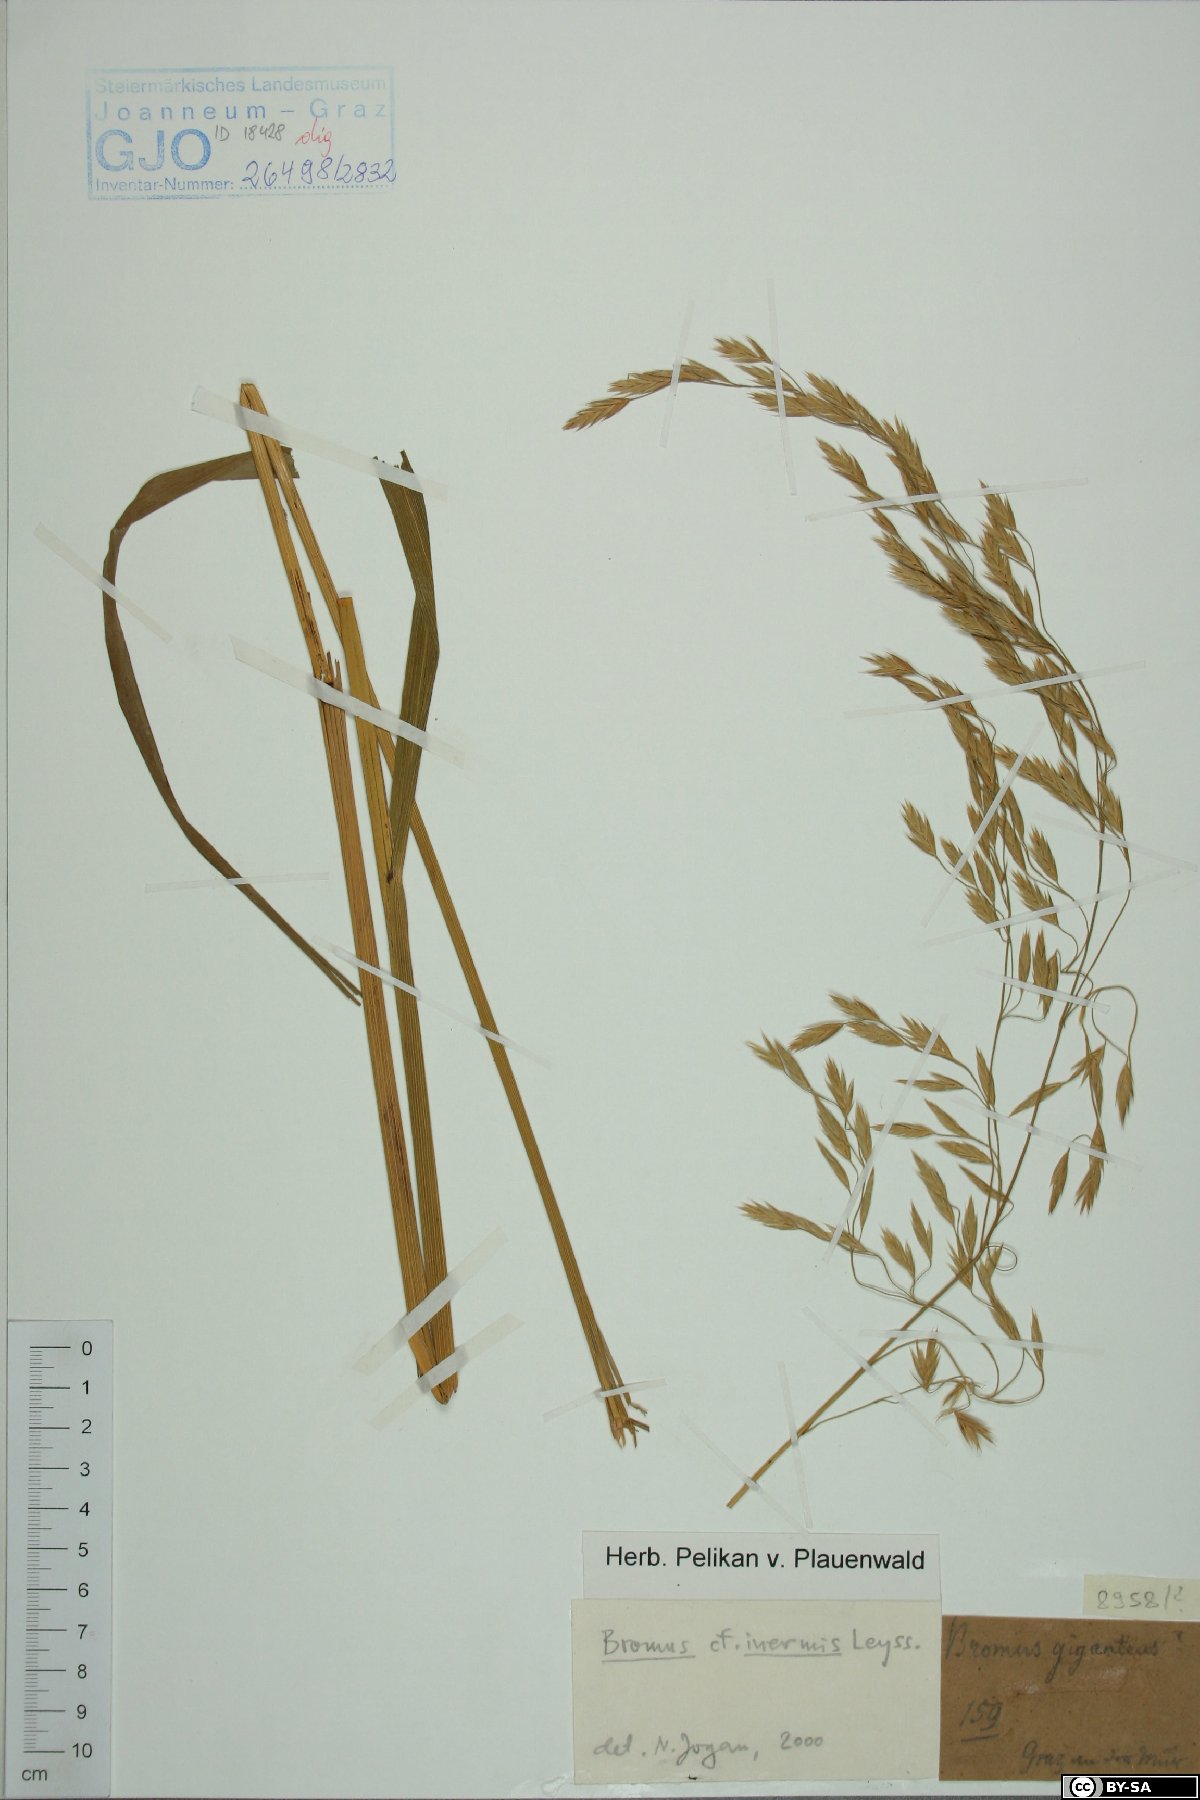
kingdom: Plantae
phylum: Tracheophyta
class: Liliopsida
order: Poales
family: Poaceae
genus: Bromus
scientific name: Bromus inermis
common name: Smooth brome
